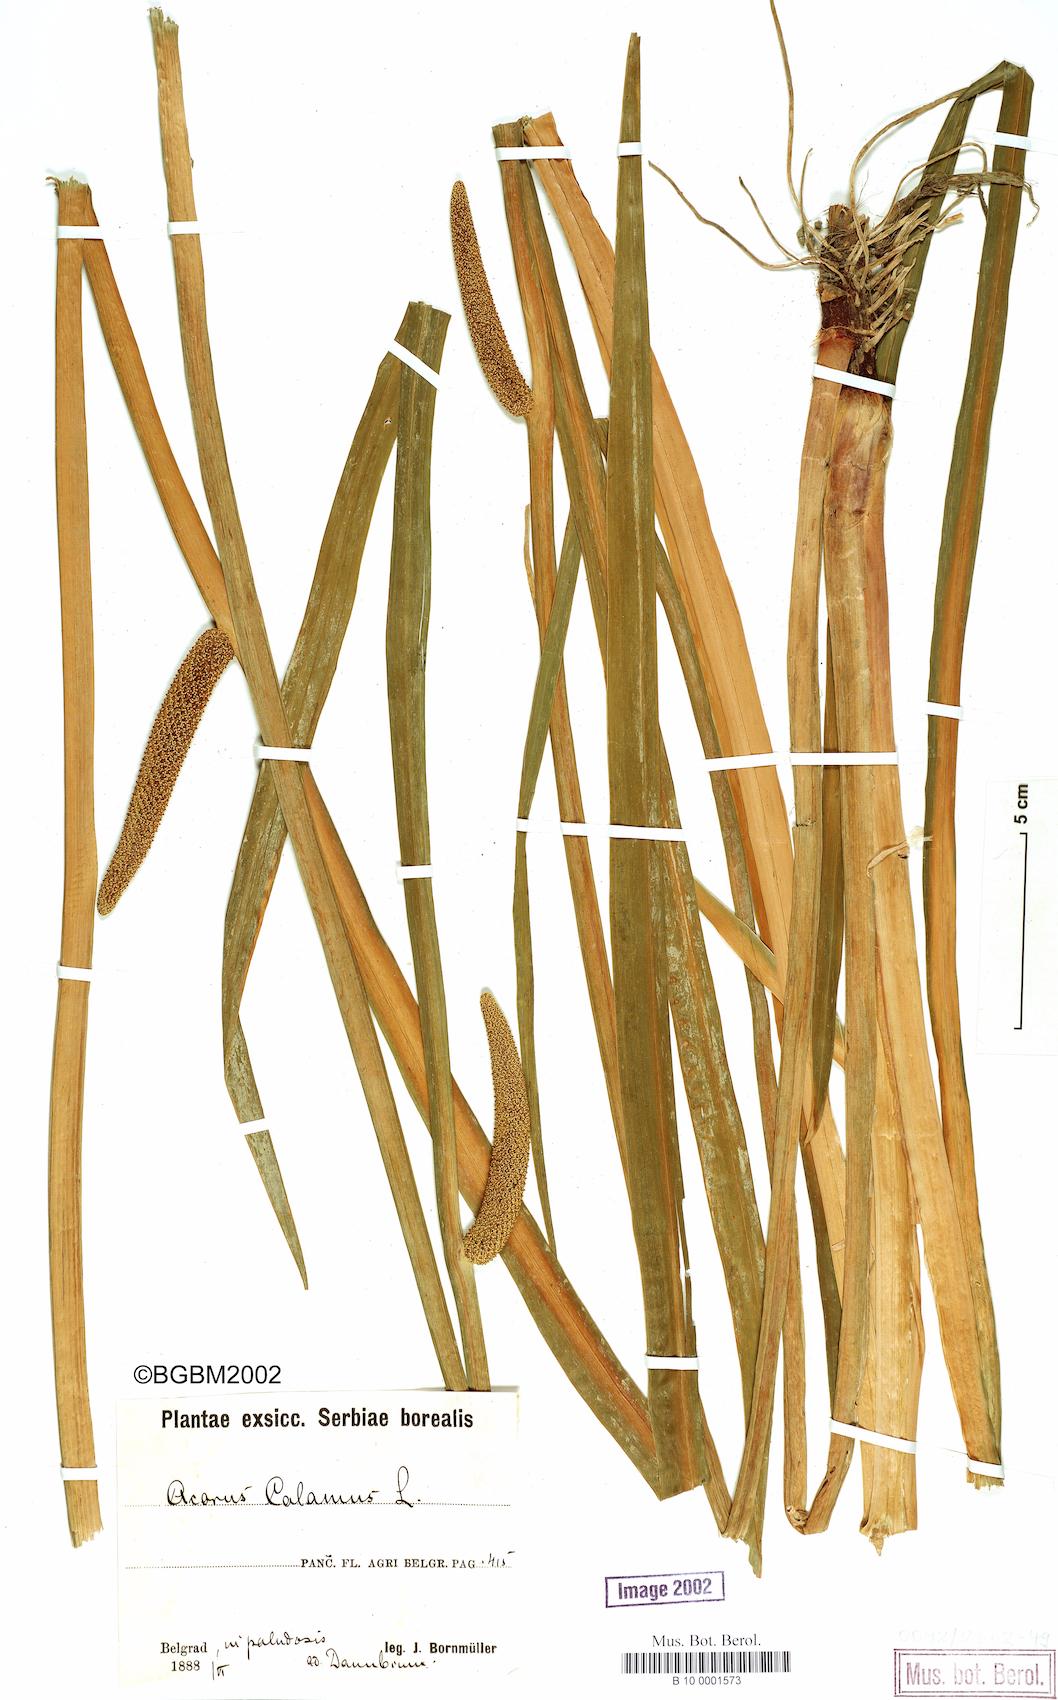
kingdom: Plantae
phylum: Tracheophyta
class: Liliopsida
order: Acorales
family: Acoraceae
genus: Acorus
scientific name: Acorus calamus
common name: Sweet-flag
